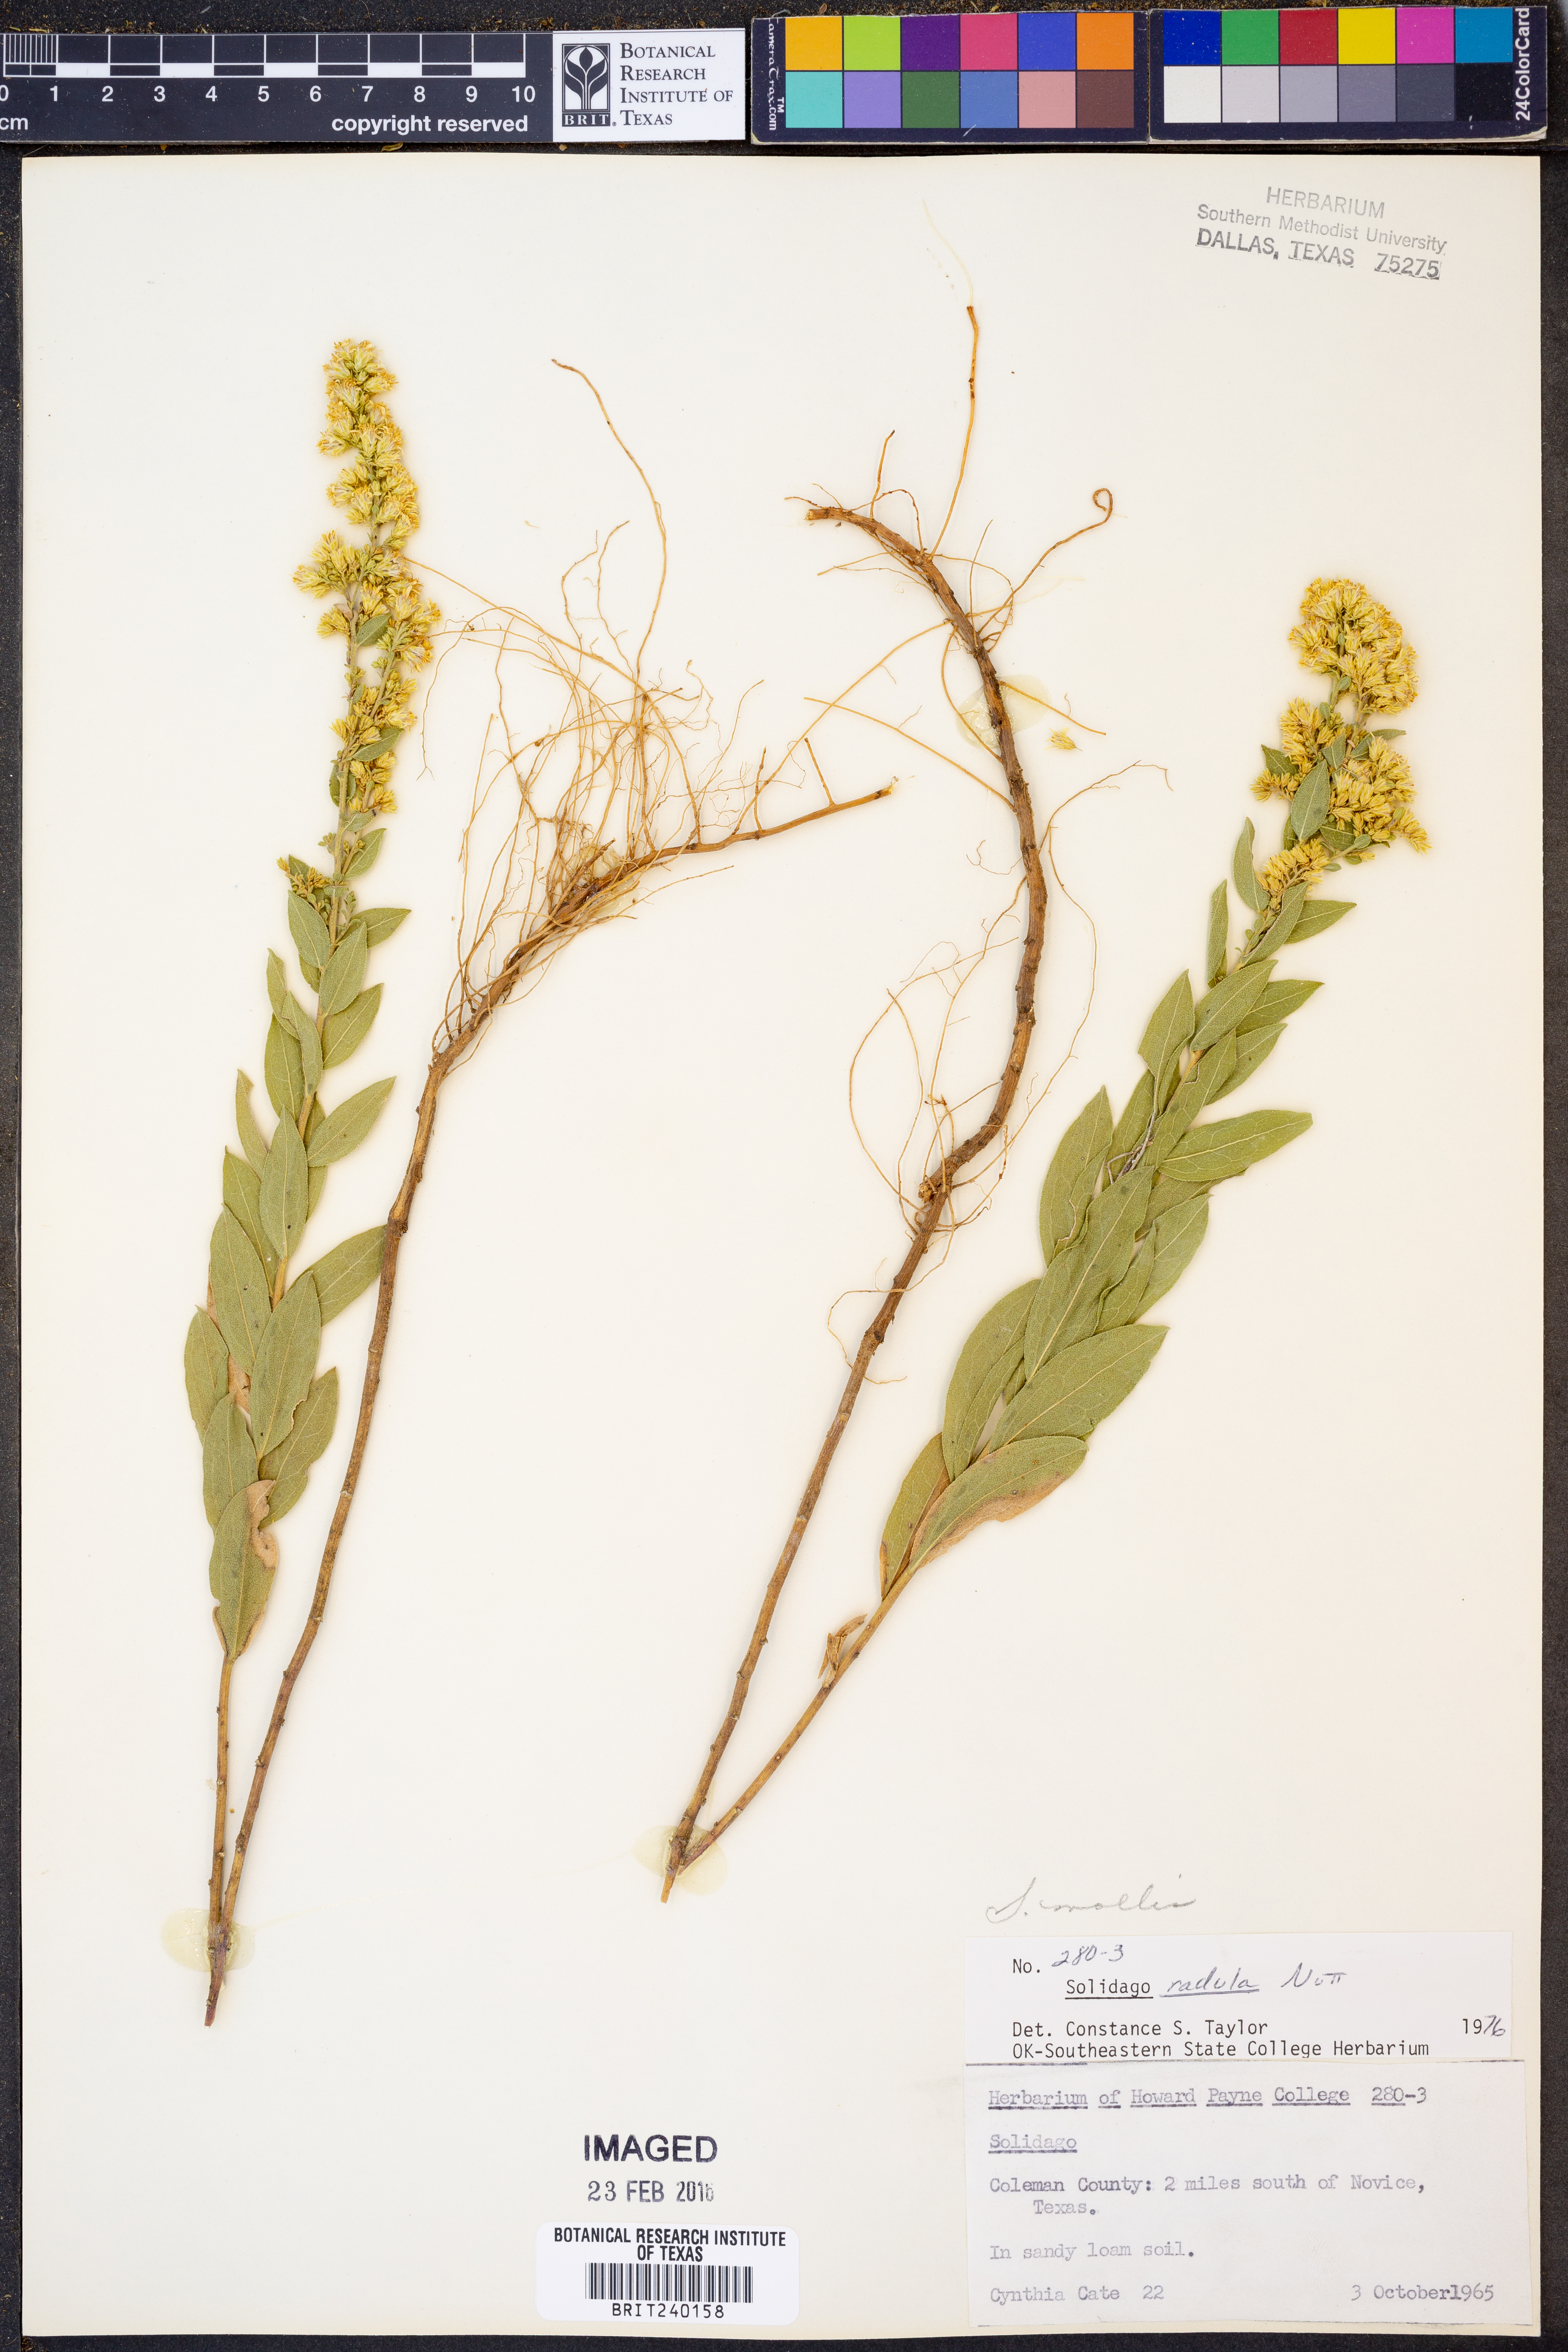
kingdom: Plantae
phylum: Tracheophyta
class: Magnoliopsida
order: Asterales
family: Asteraceae
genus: Solidago
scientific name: Solidago mollis
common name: Ashly goldenrod
